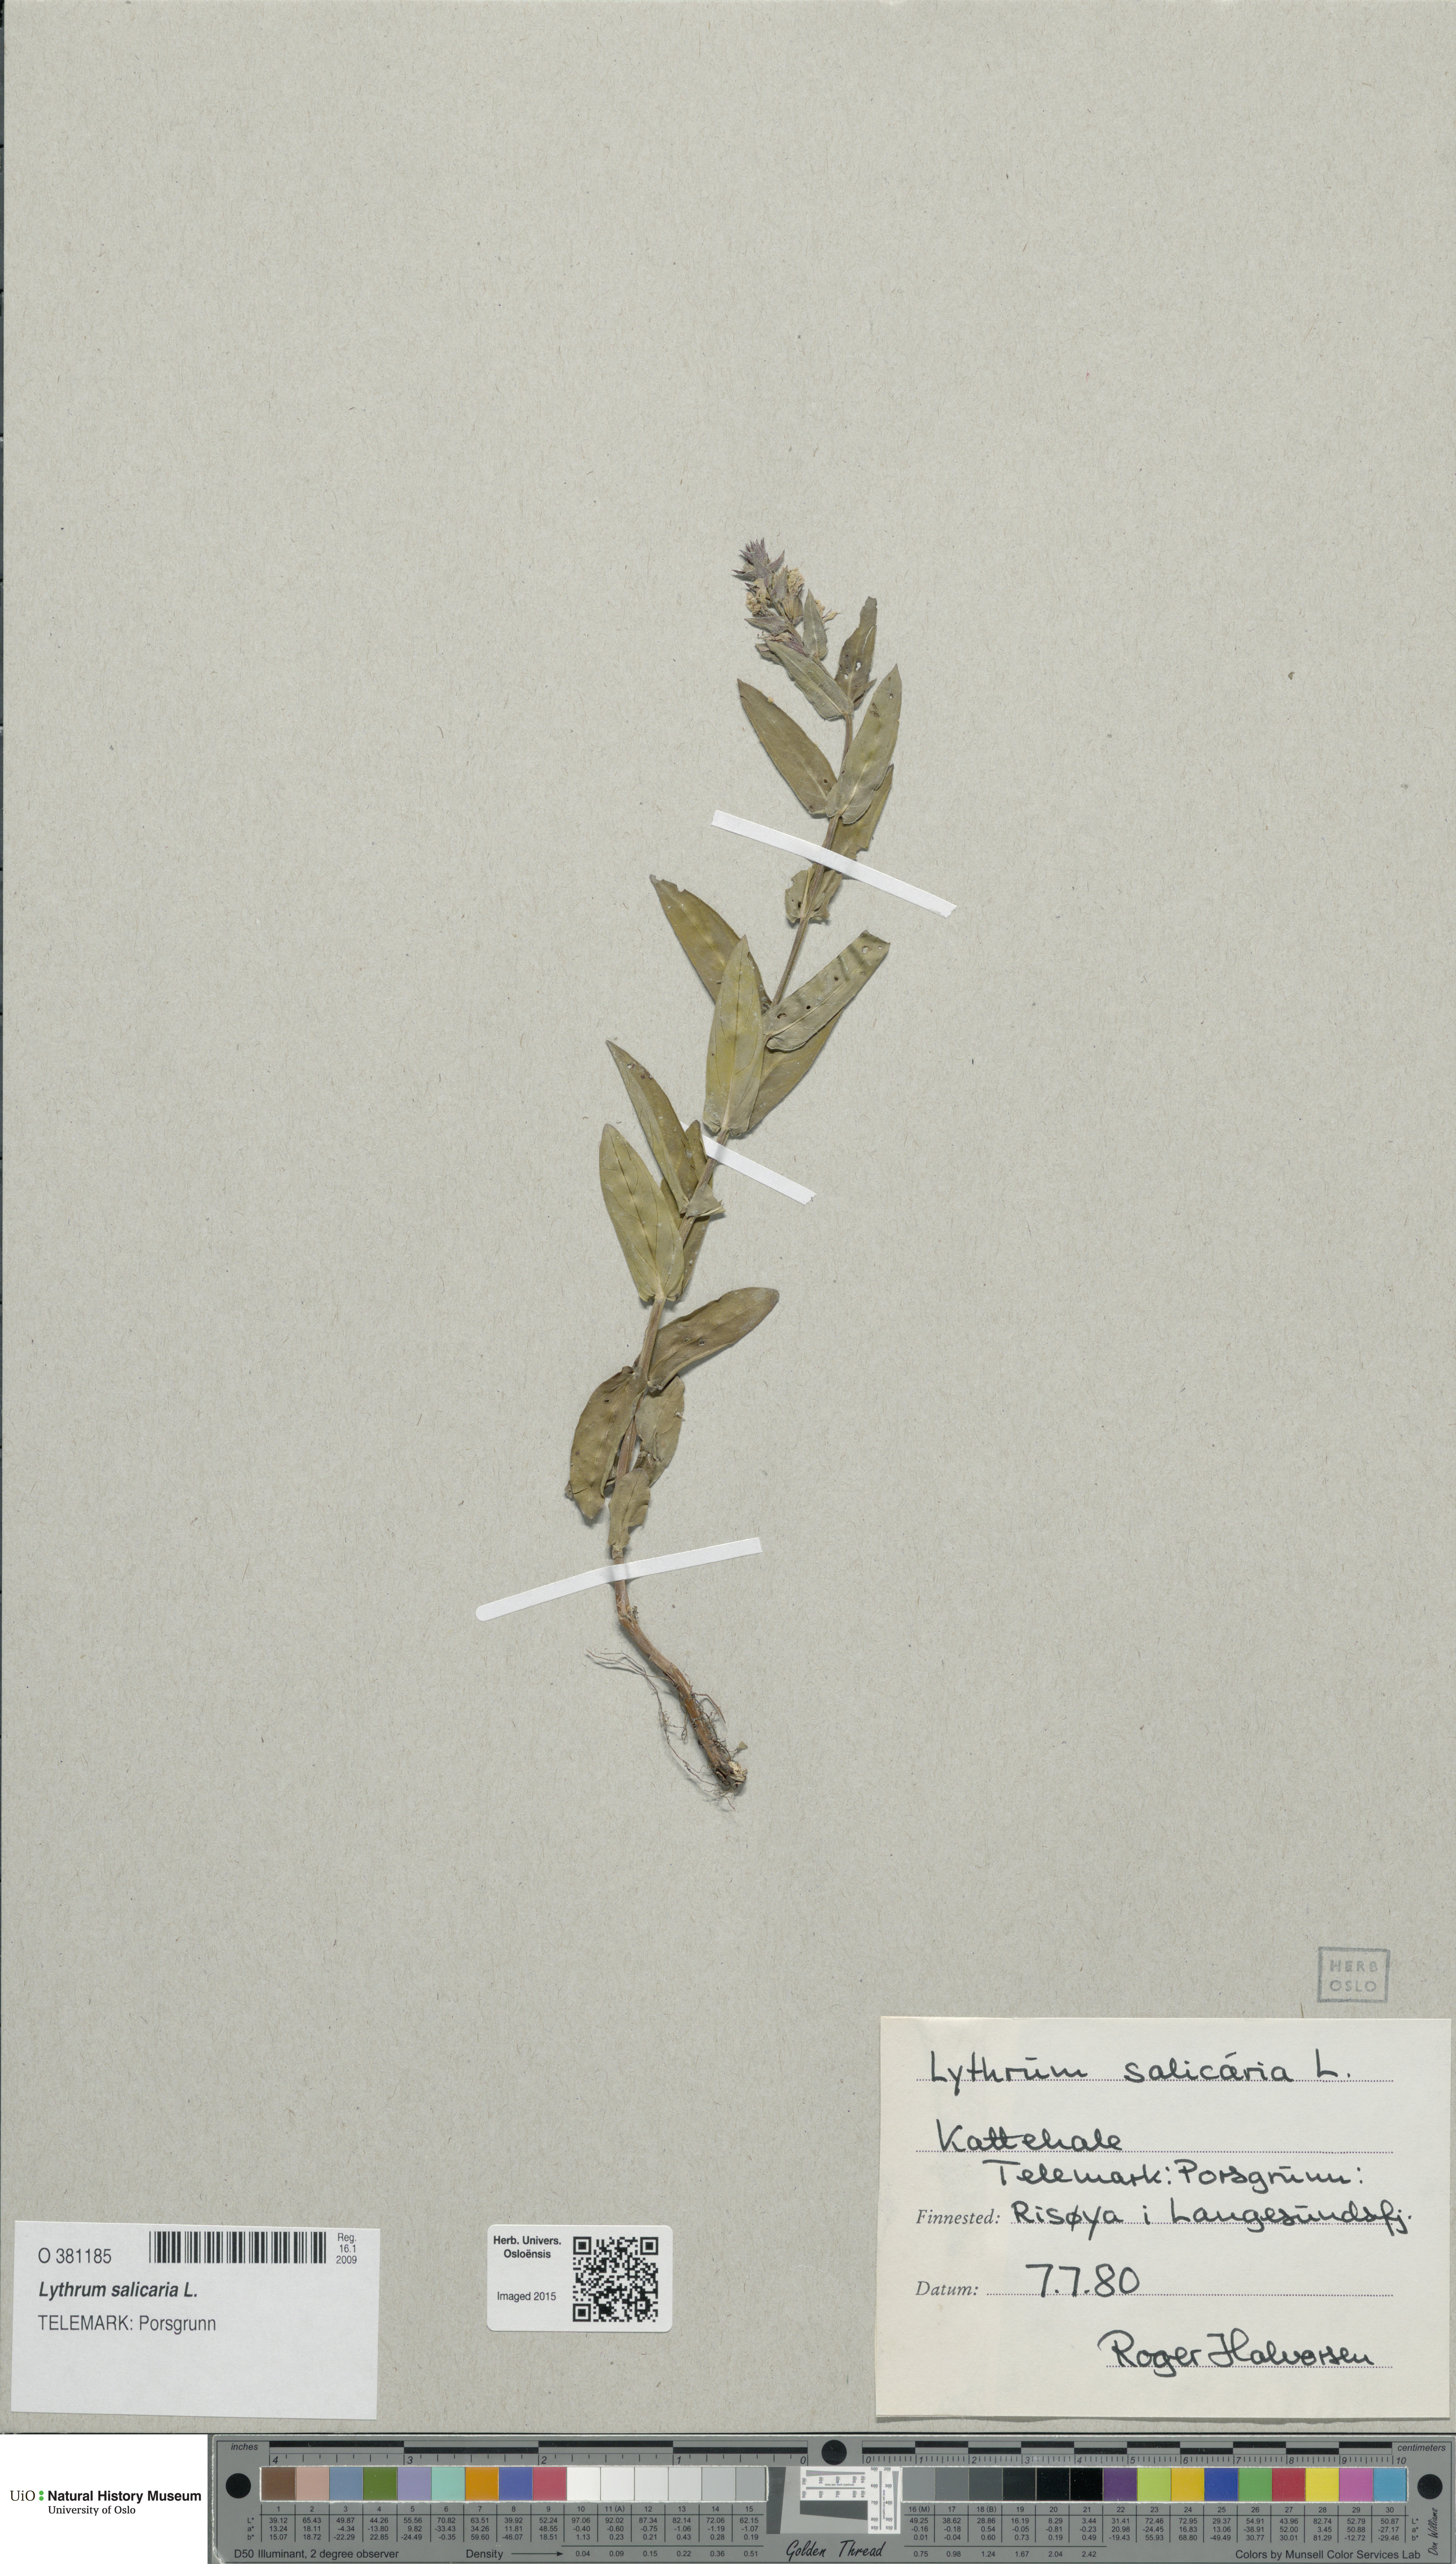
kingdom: Plantae
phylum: Tracheophyta
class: Magnoliopsida
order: Myrtales
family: Lythraceae
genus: Lythrum
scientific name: Lythrum salicaria
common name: Purple loosestrife
